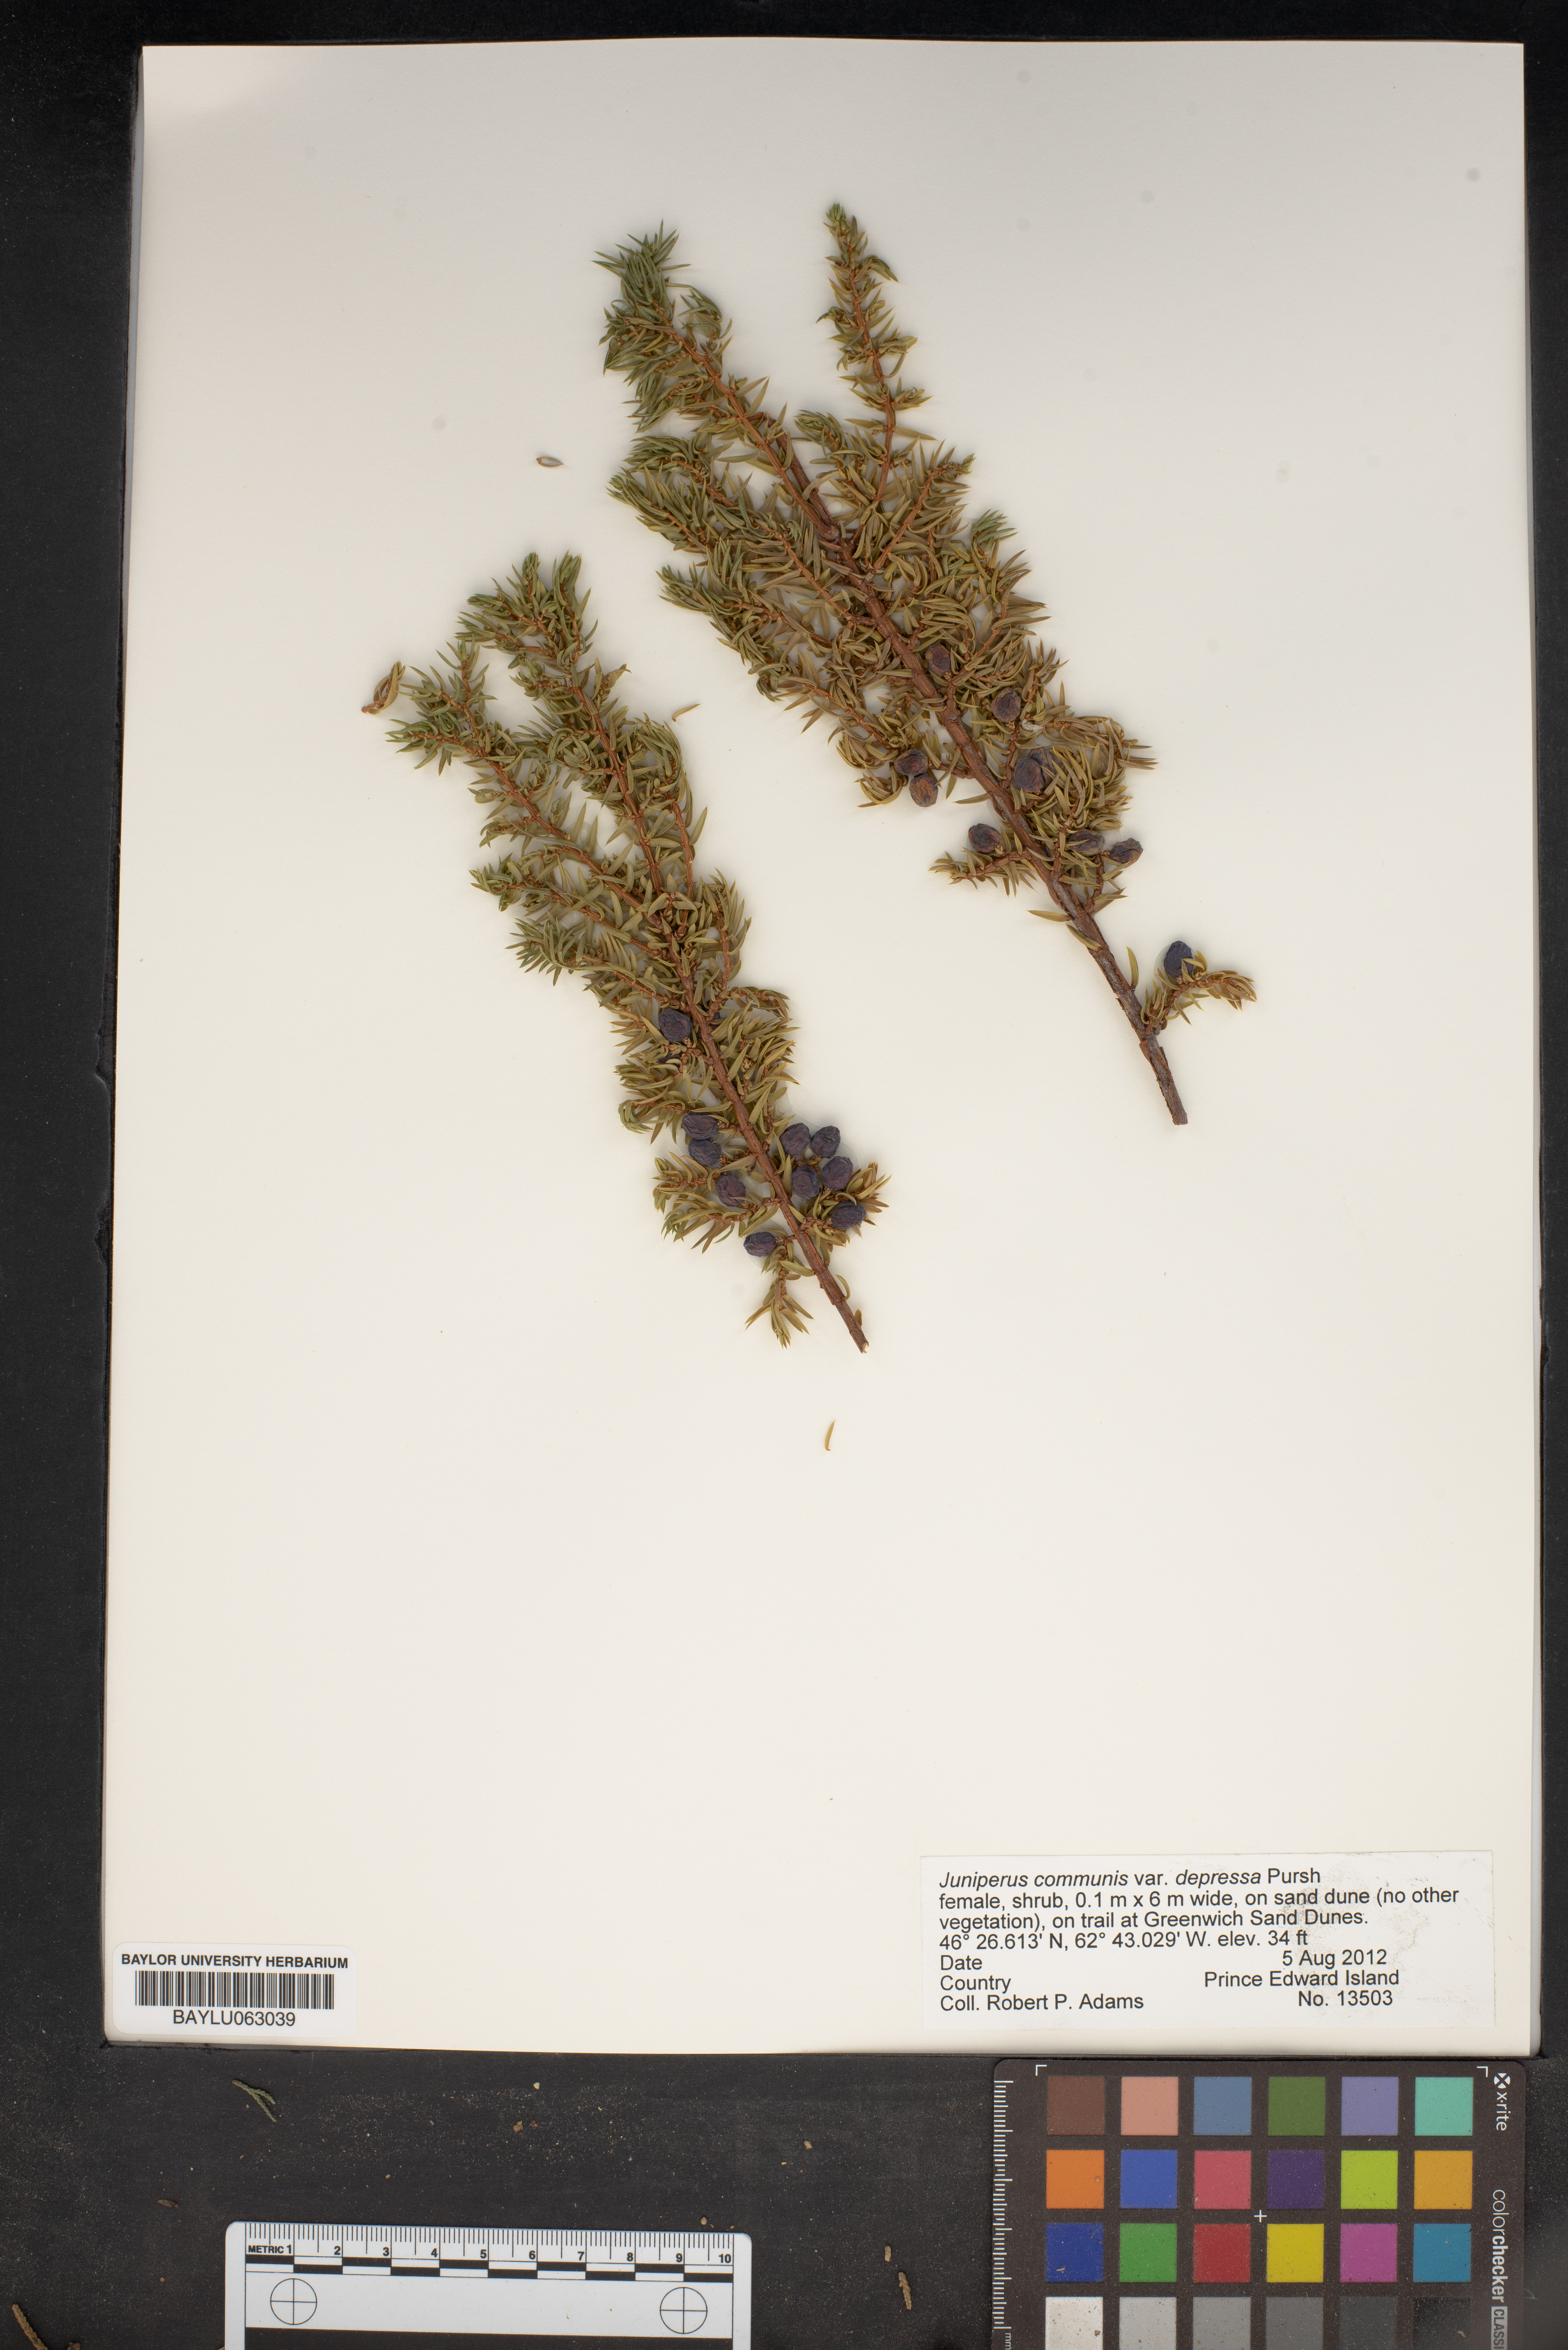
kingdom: Plantae
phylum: Tracheophyta
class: Pinopsida
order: Pinales
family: Cupressaceae
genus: Juniperus
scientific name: Juniperus communis
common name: Common juniper
